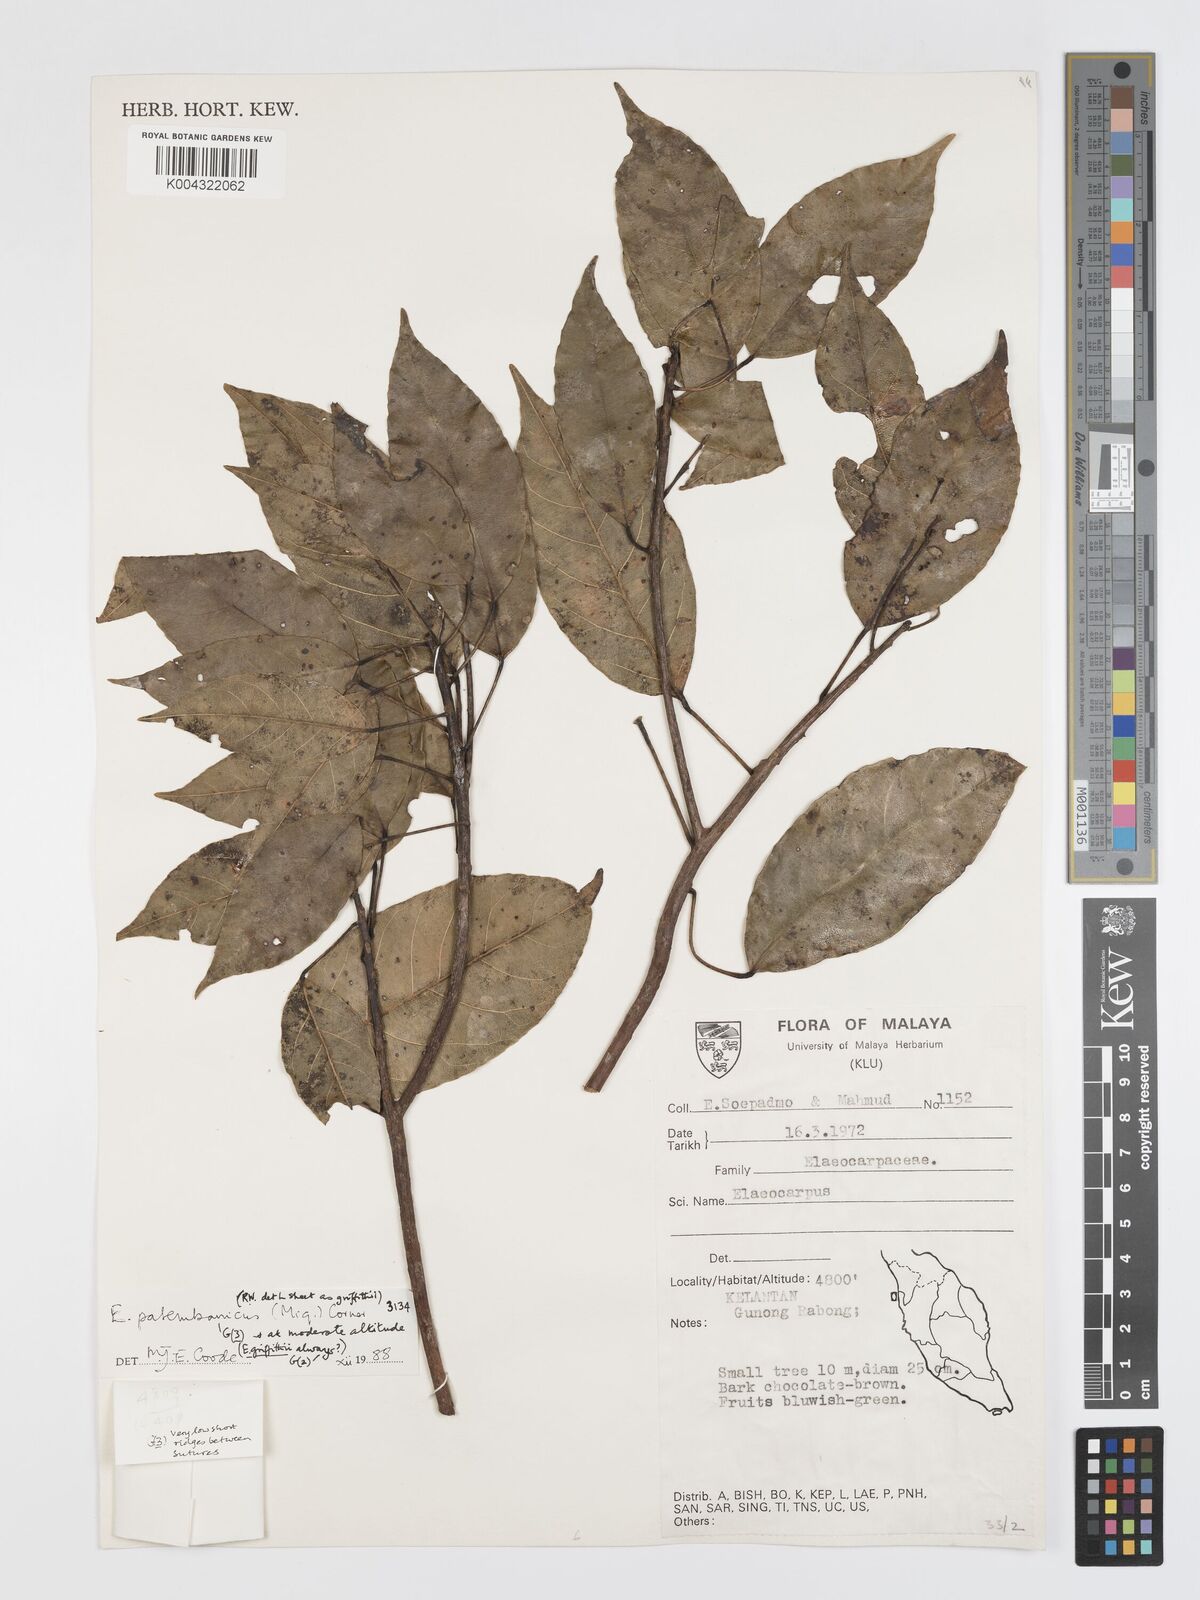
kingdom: Plantae
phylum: Tracheophyta
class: Magnoliopsida
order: Oxalidales
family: Elaeocarpaceae
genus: Elaeocarpus
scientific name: Elaeocarpus palembanicus
